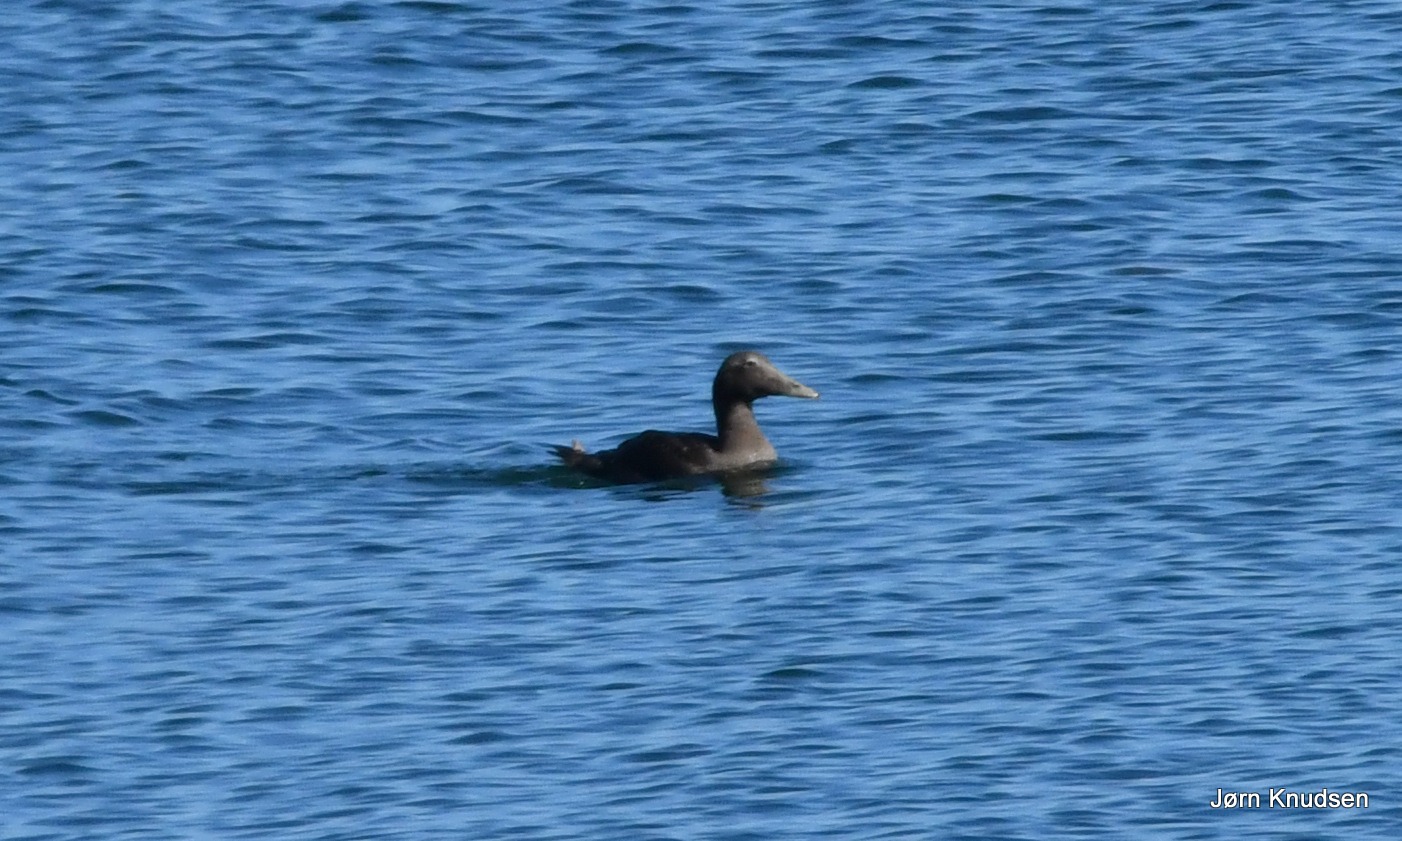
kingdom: Animalia
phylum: Chordata
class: Aves
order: Anseriformes
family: Anatidae
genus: Somateria
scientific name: Somateria mollissima
